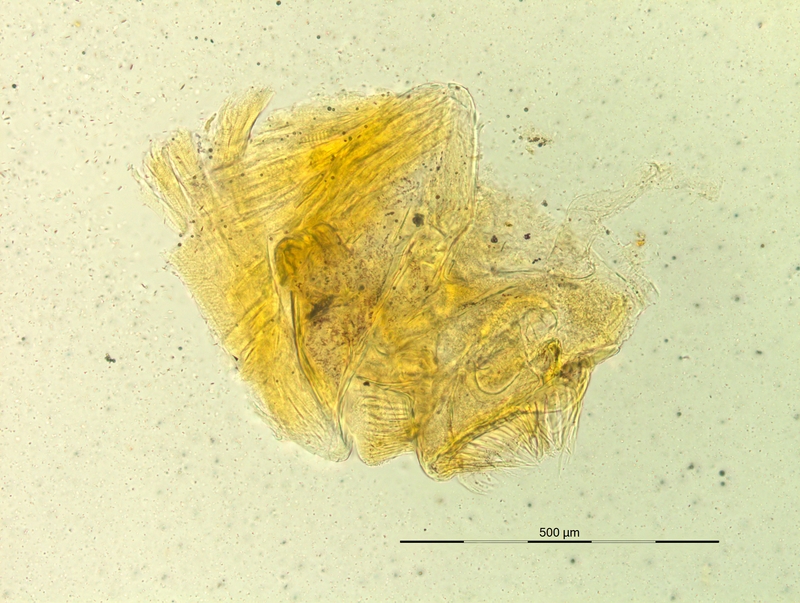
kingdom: Animalia
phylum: Arthropoda
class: Diplopoda
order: Chordeumatida
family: Craspedosomatidae
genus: Pyrgocyphosoma
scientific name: Pyrgocyphosoma dalmazzense
